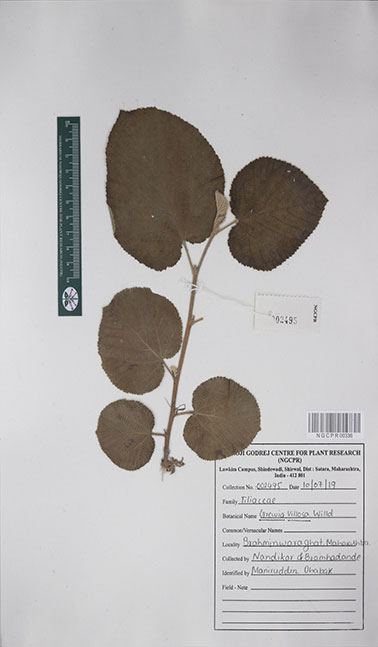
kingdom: Plantae
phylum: Tracheophyta
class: Magnoliopsida
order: Malvales
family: Malvaceae
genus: Grewia
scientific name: Grewia villosa
